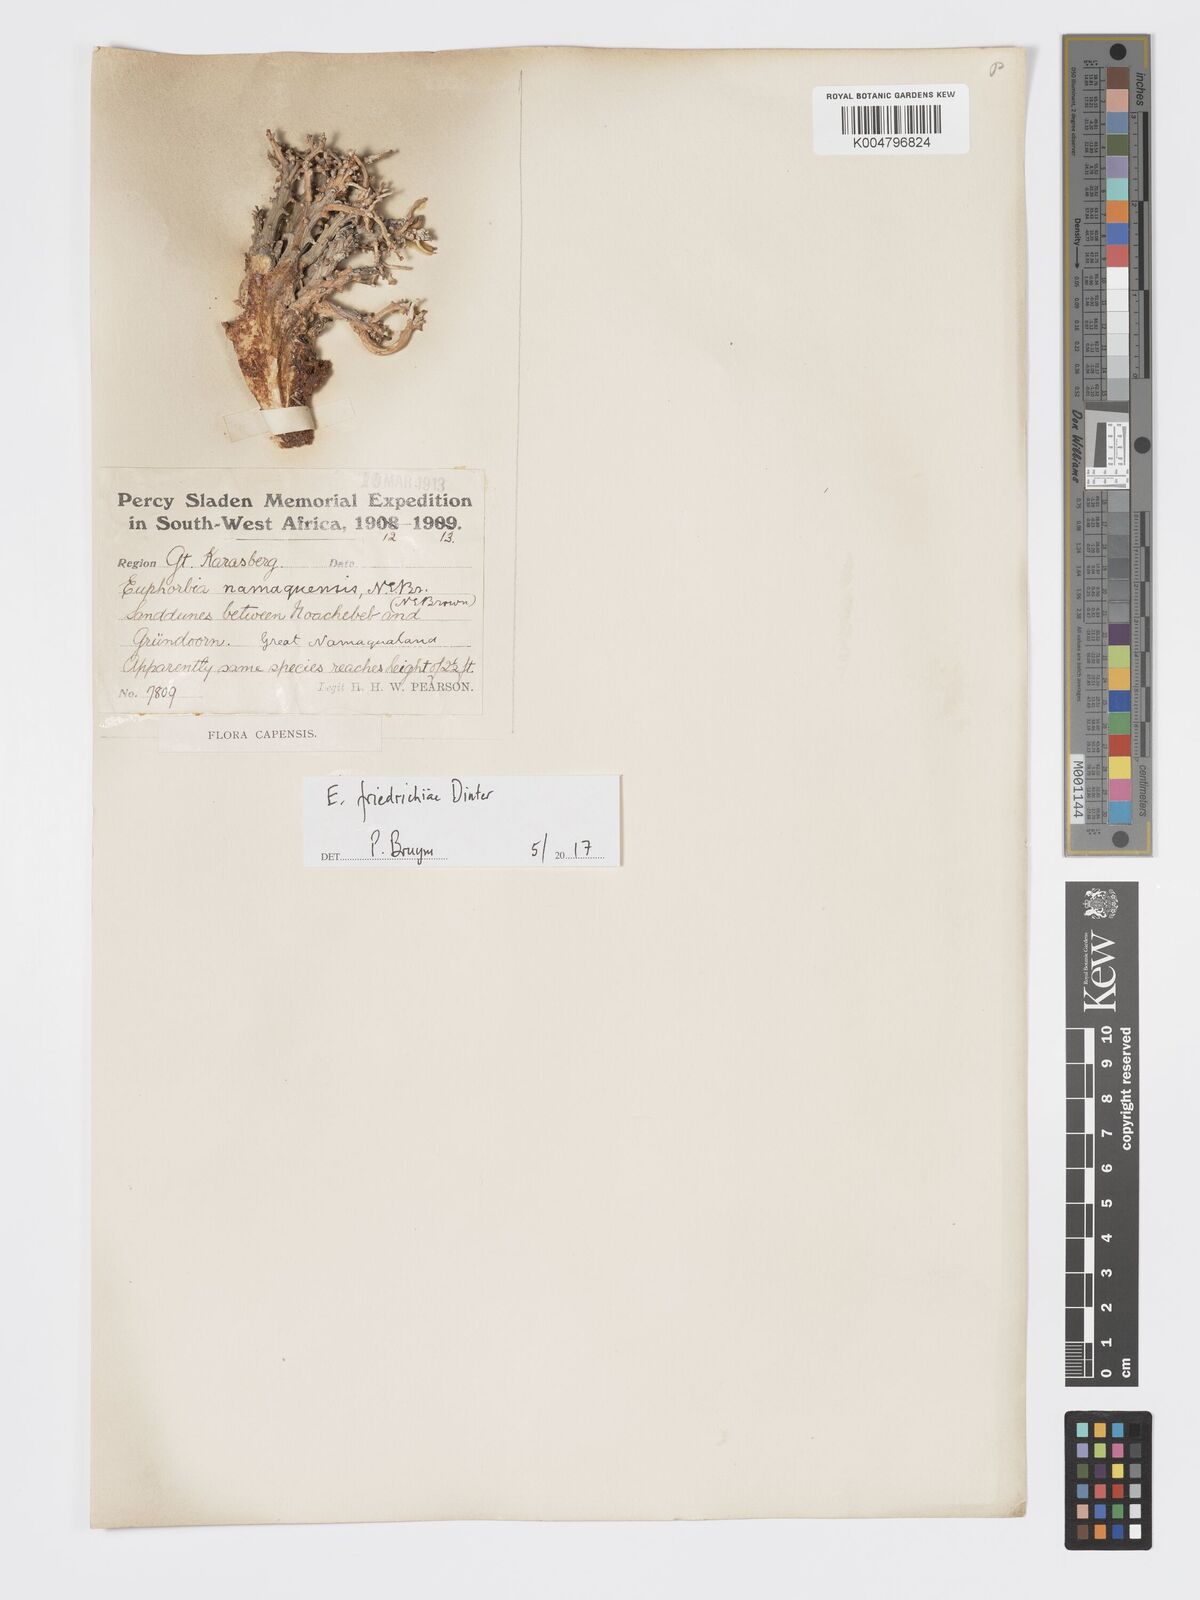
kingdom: Plantae
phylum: Tracheophyta
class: Magnoliopsida
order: Malpighiales
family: Euphorbiaceae
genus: Euphorbia
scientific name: Euphorbia friedrichiae
